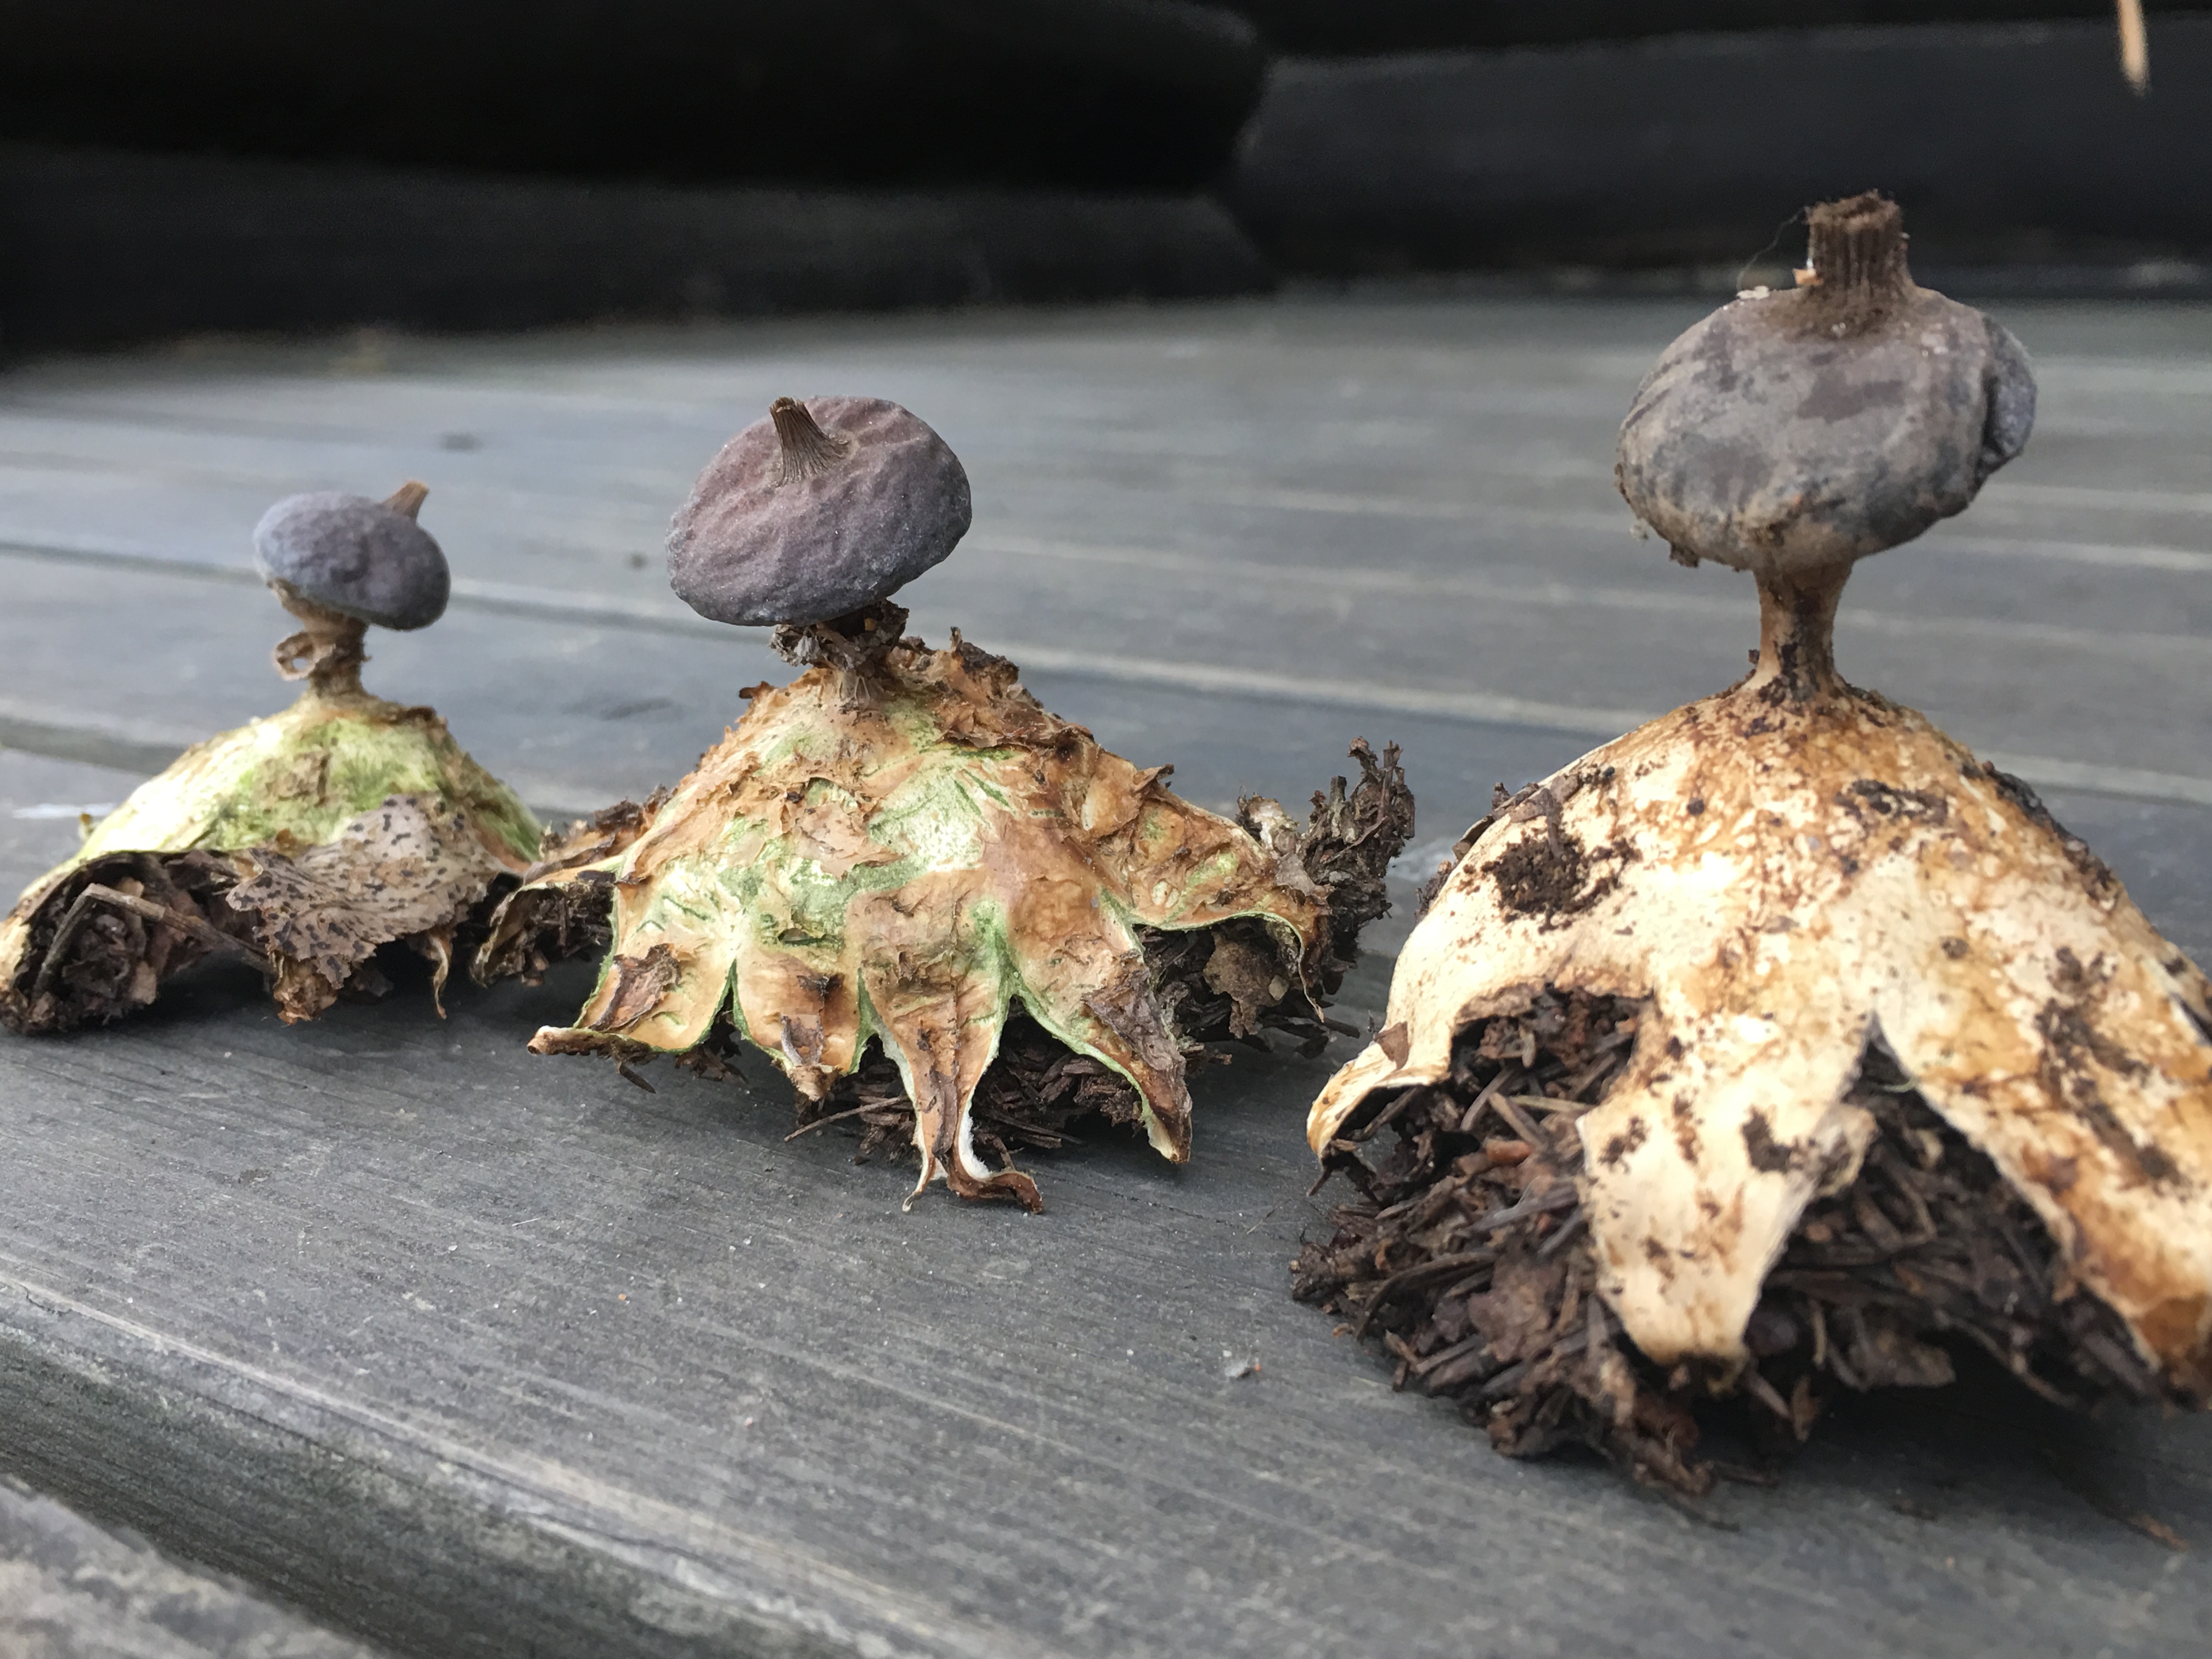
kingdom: Fungi
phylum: Basidiomycota
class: Agaricomycetes
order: Geastrales
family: Geastraceae
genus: Geastrum
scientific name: Geastrum pectinatum
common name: Beaked earthstar
